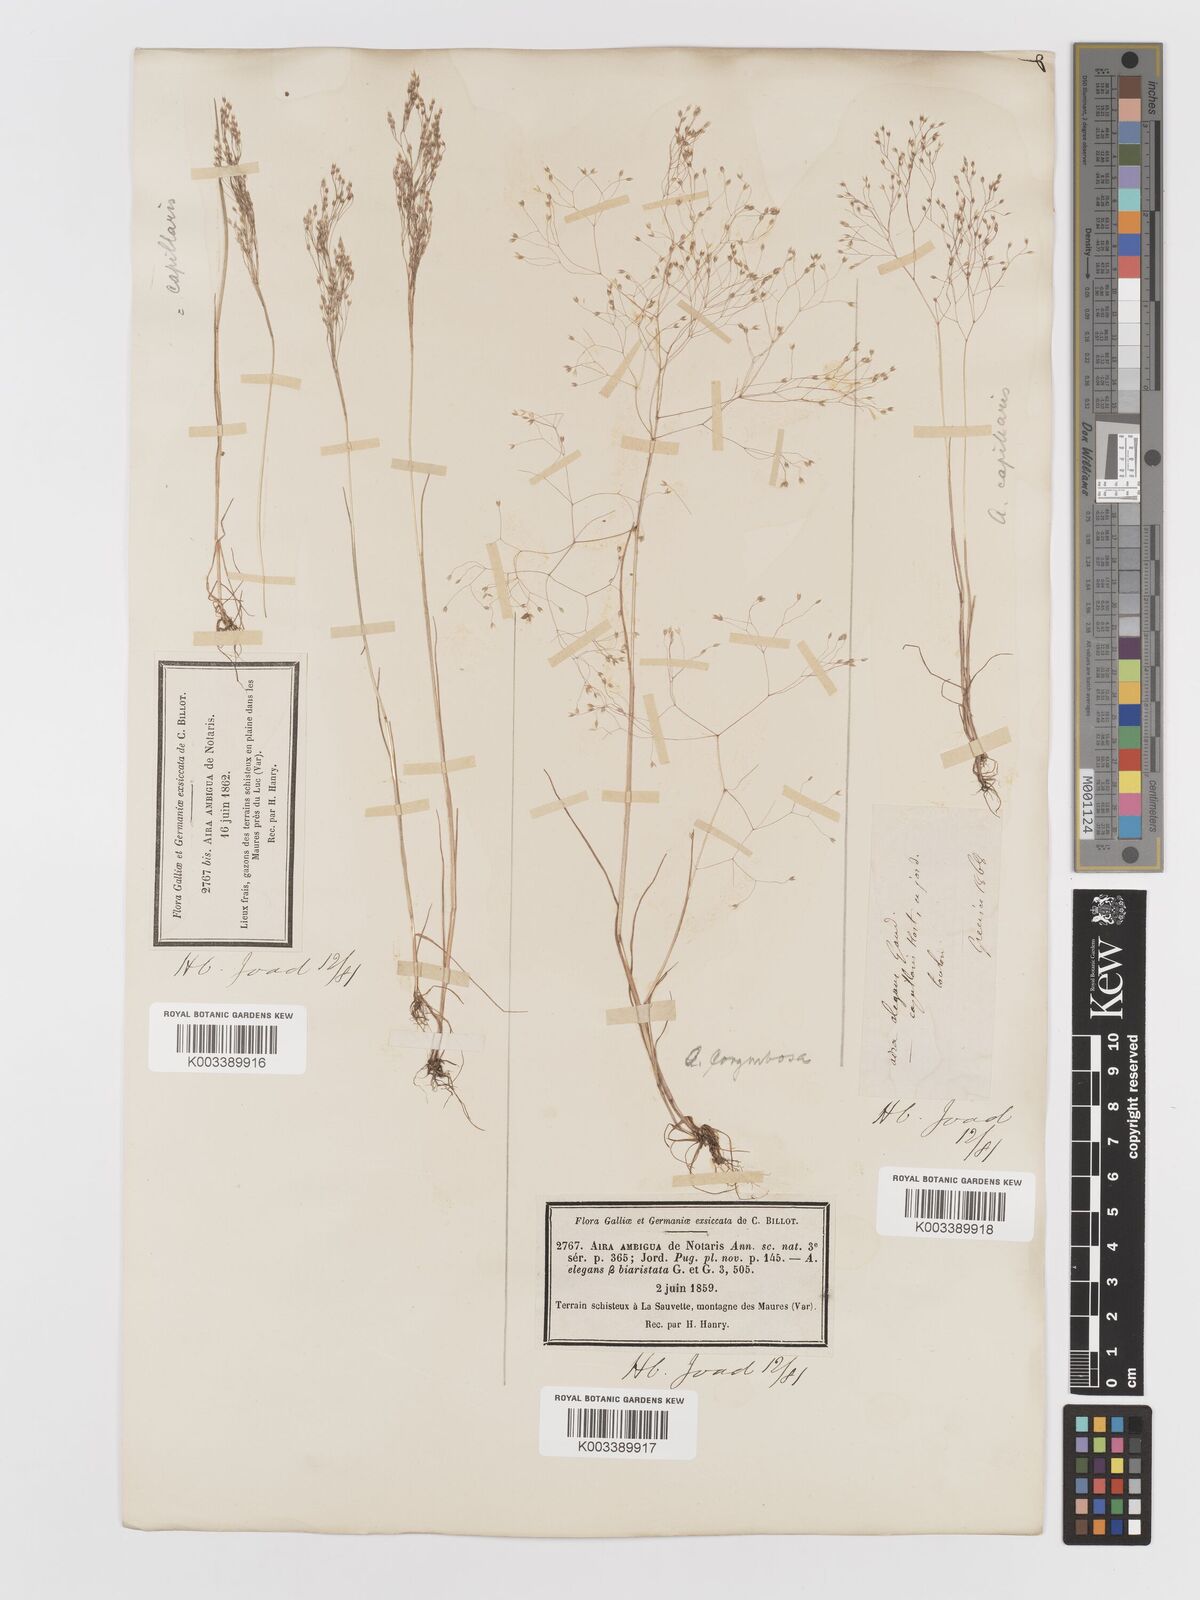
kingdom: Plantae
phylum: Tracheophyta
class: Liliopsida
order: Poales
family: Poaceae
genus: Aira
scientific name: Aira
